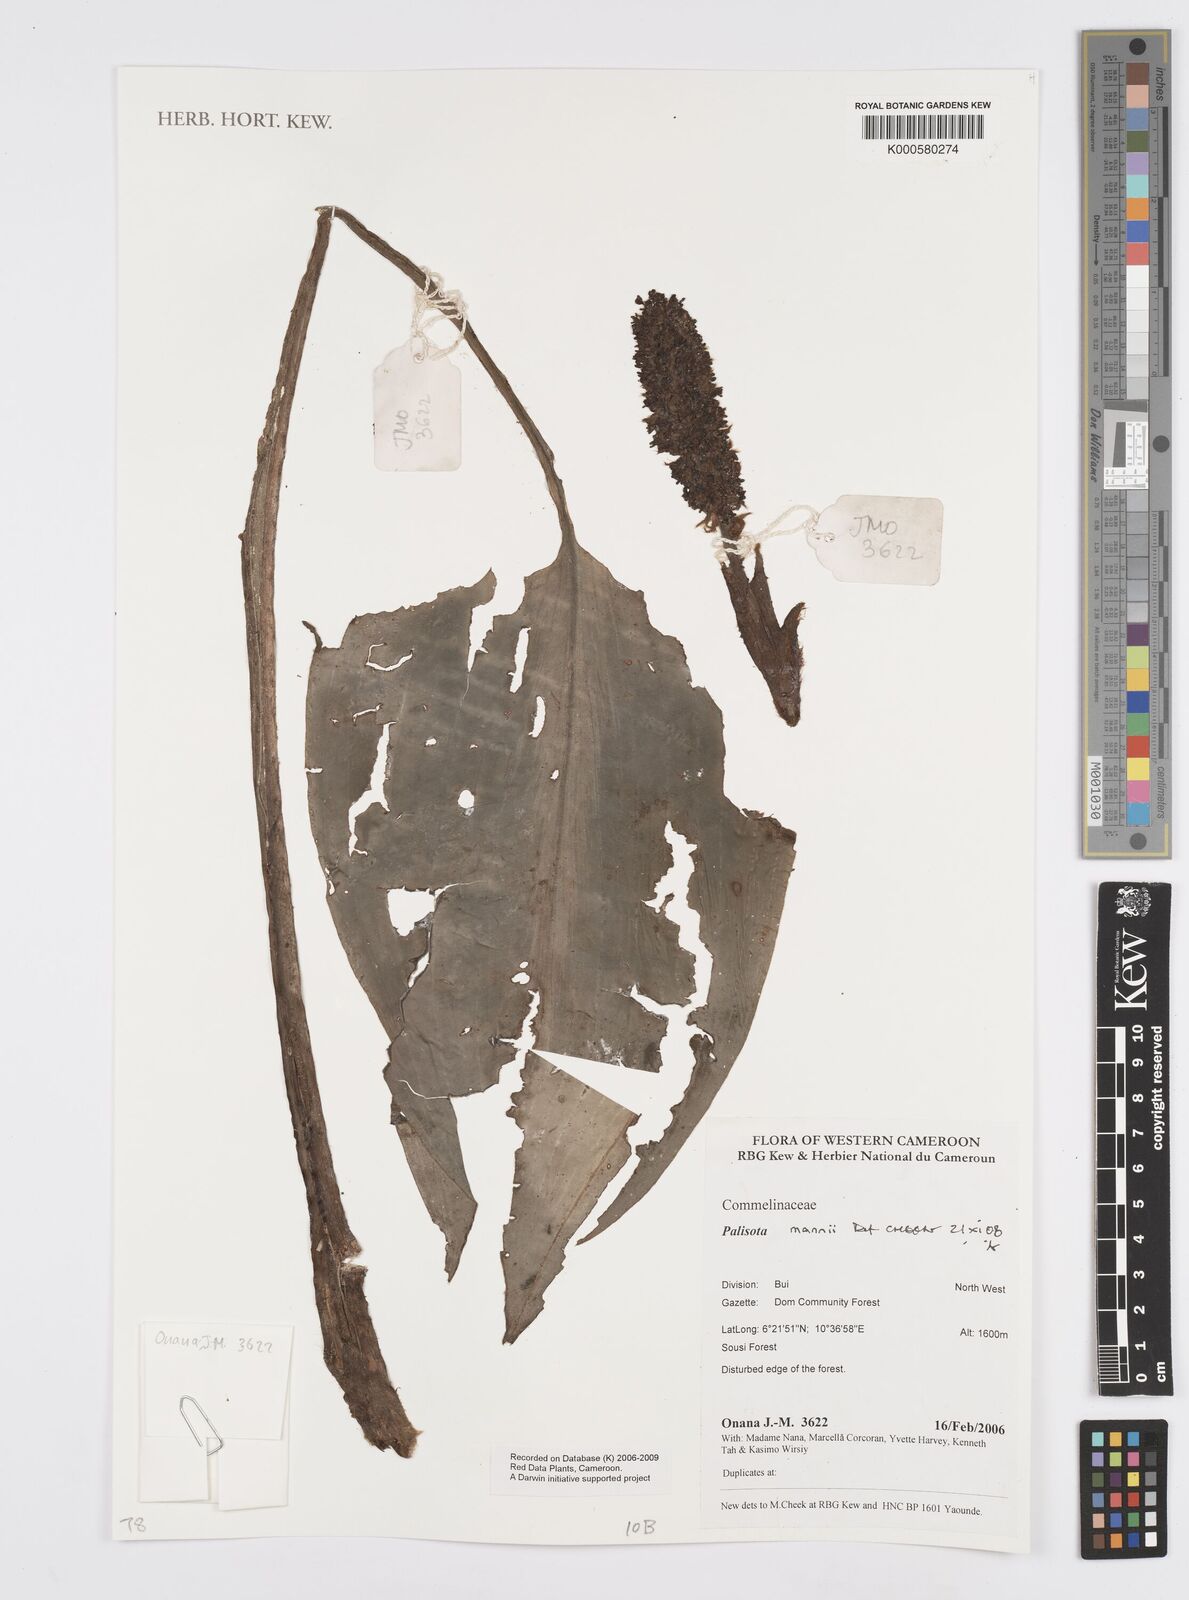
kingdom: Plantae
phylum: Tracheophyta
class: Liliopsida
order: Commelinales
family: Commelinaceae
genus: Palisota
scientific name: Palisota mannii
